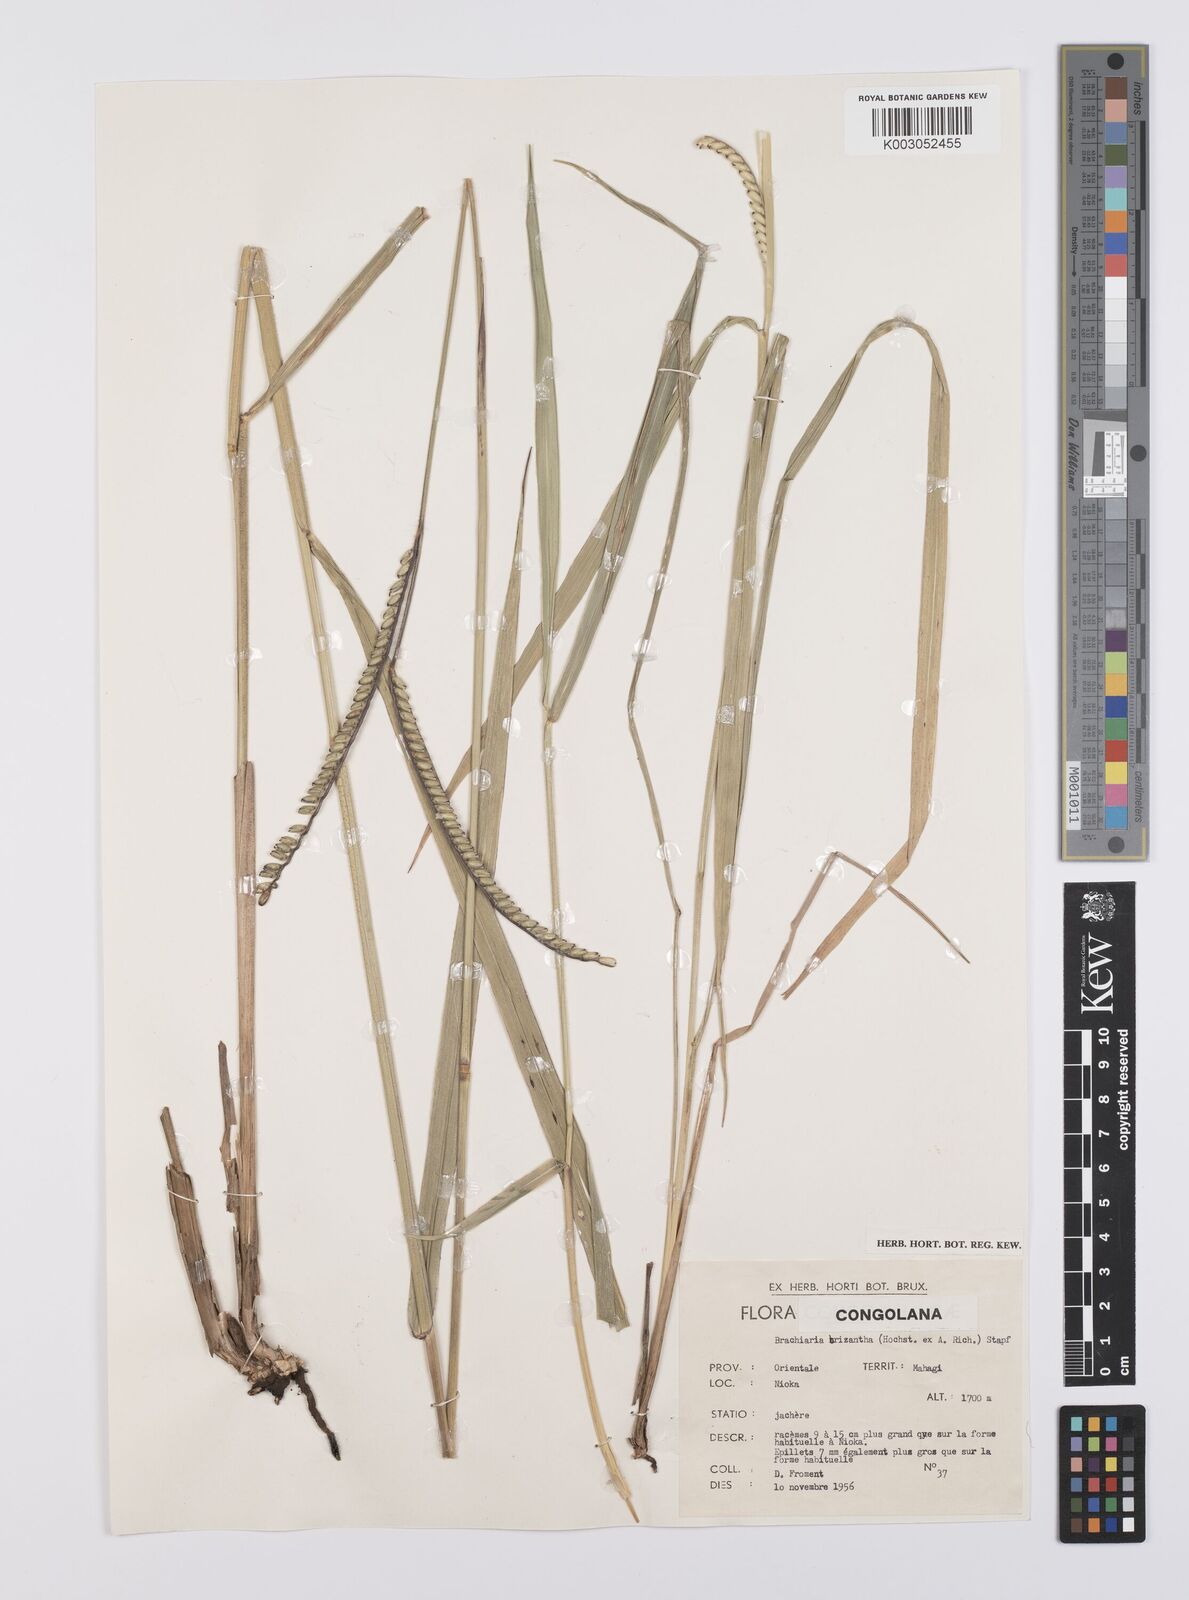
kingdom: Plantae
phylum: Tracheophyta
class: Liliopsida
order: Poales
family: Poaceae
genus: Urochloa
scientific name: Urochloa brizantha
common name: Palisade signalgrass
